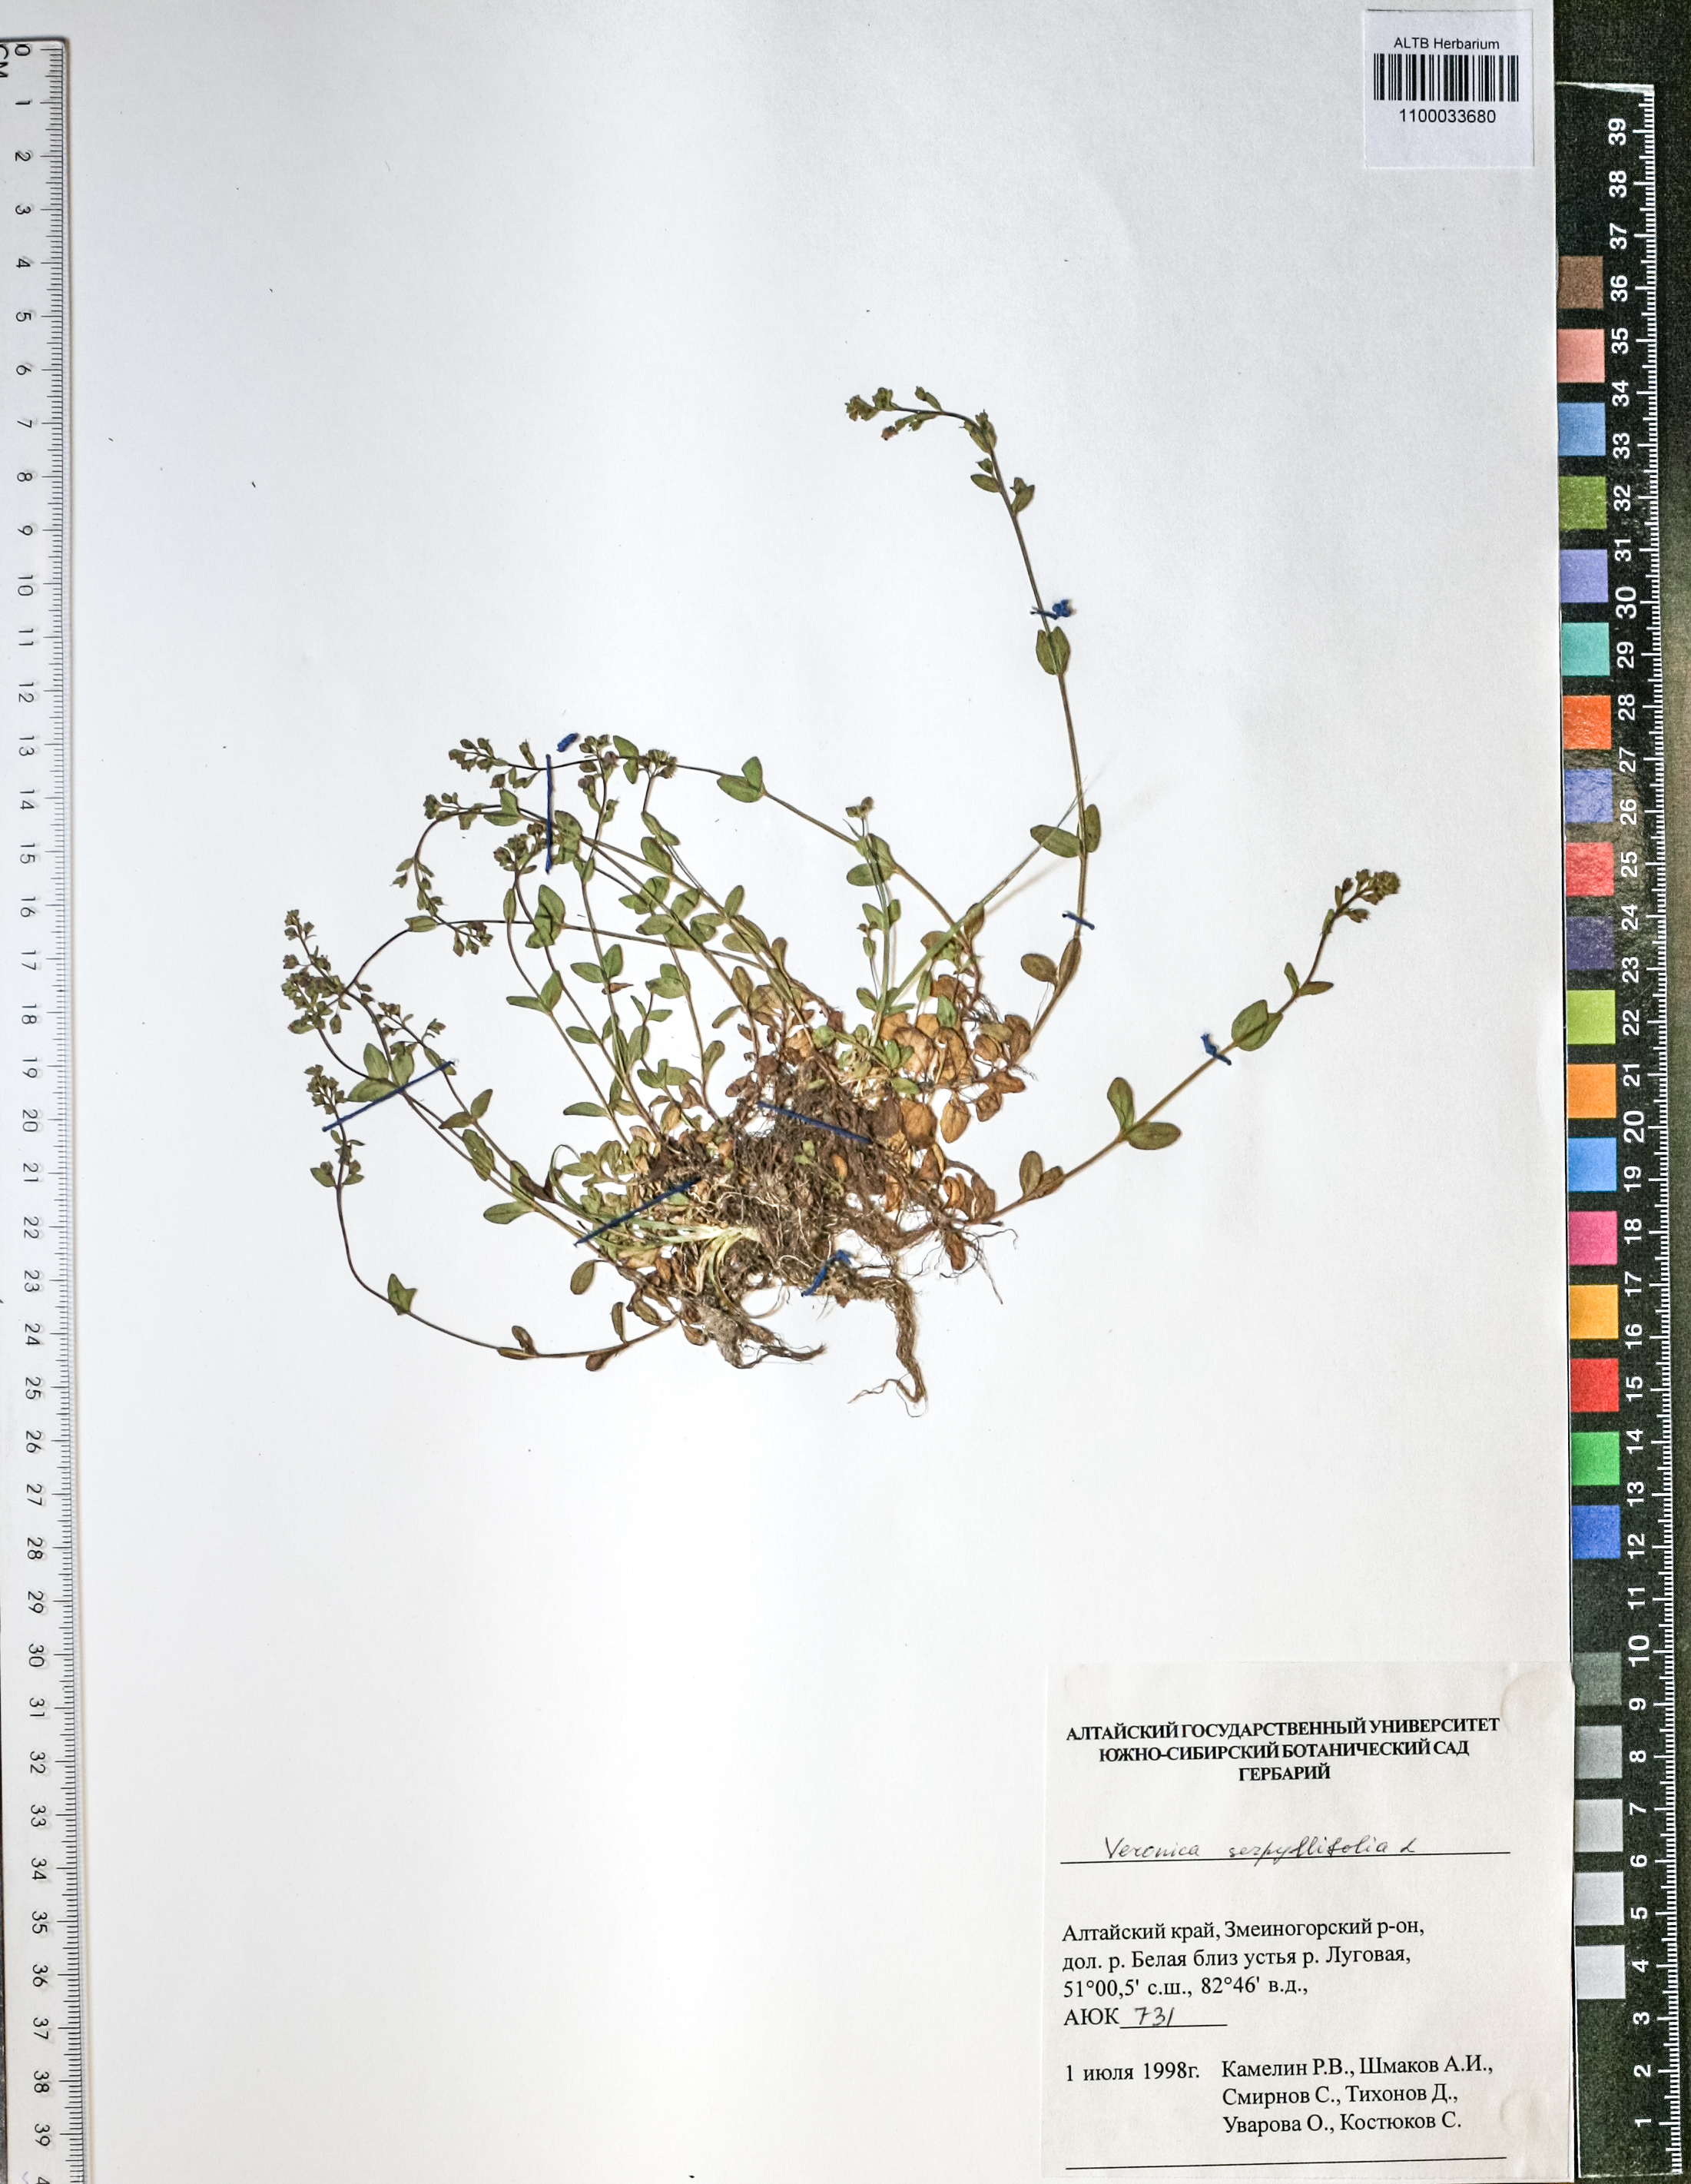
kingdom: Plantae
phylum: Tracheophyta
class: Magnoliopsida
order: Lamiales
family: Plantaginaceae
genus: Veronica
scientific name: Veronica serpyllifolia
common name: Thyme-leaved speedwell
